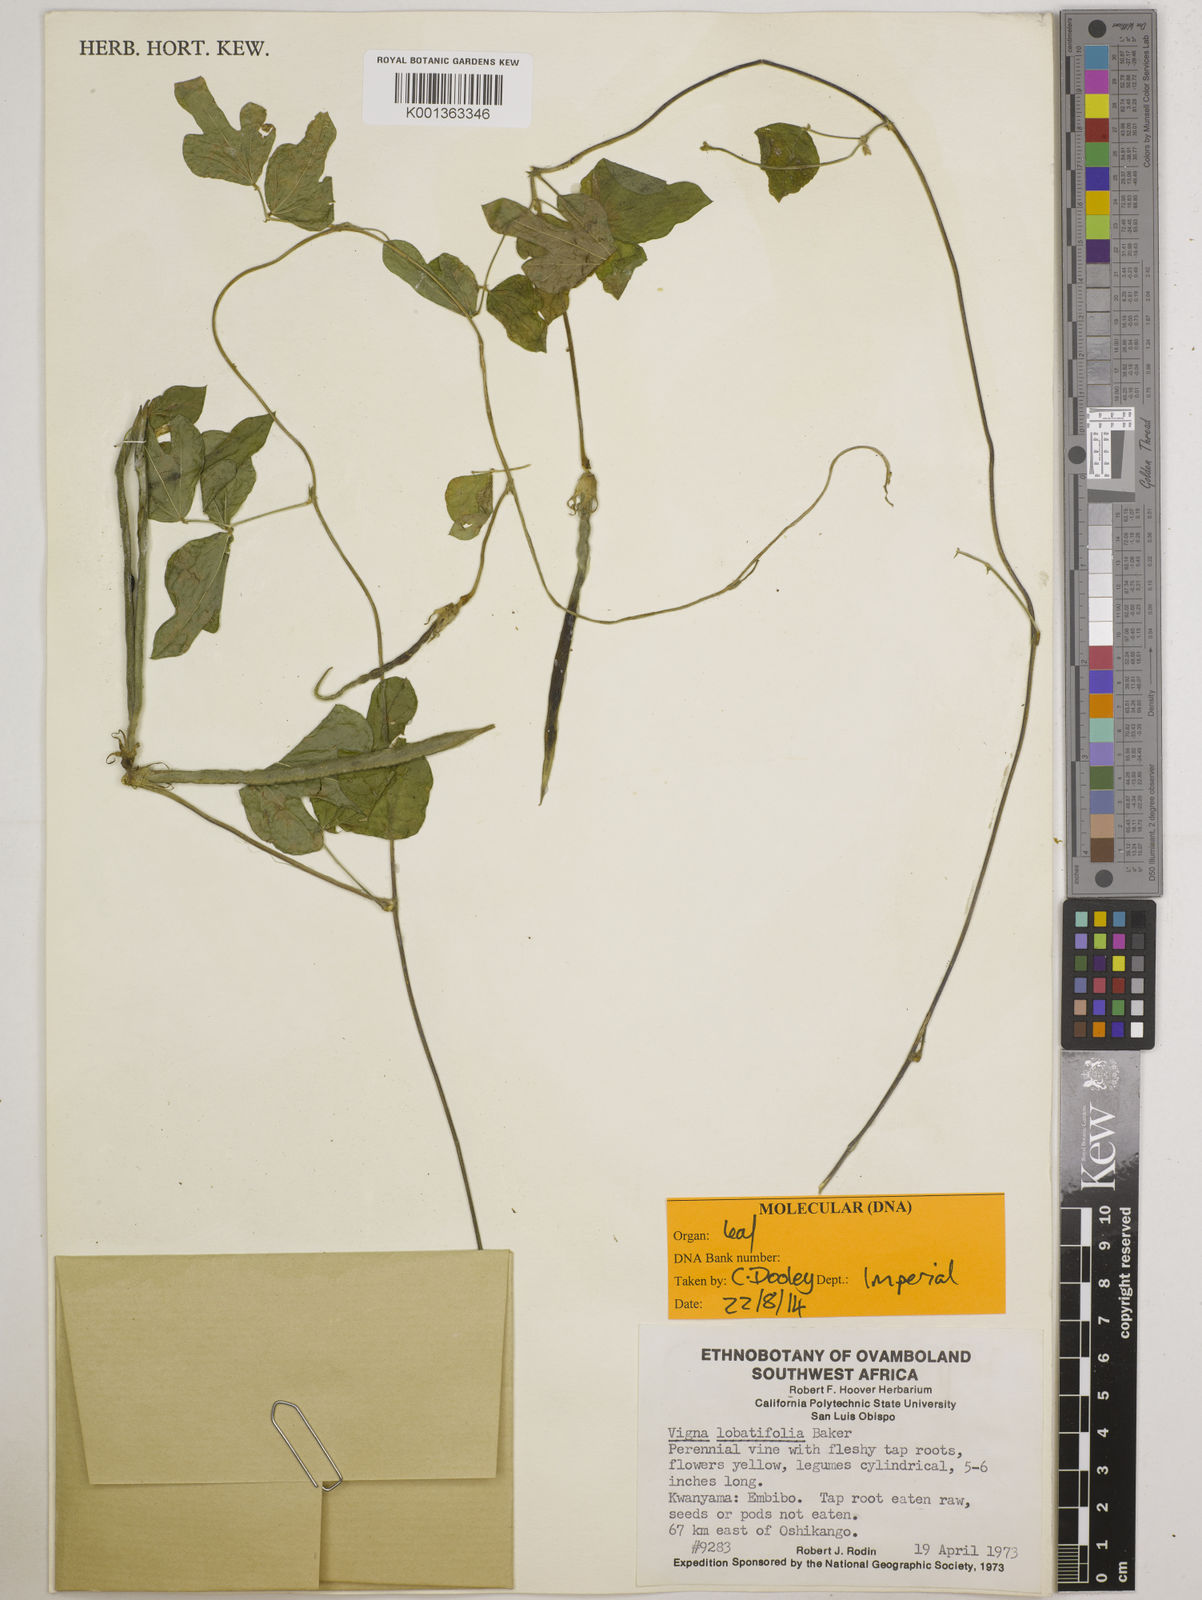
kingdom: Plantae
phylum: Tracheophyta
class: Magnoliopsida
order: Fabales
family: Fabaceae
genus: Vigna
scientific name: Vigna lobatifolia
